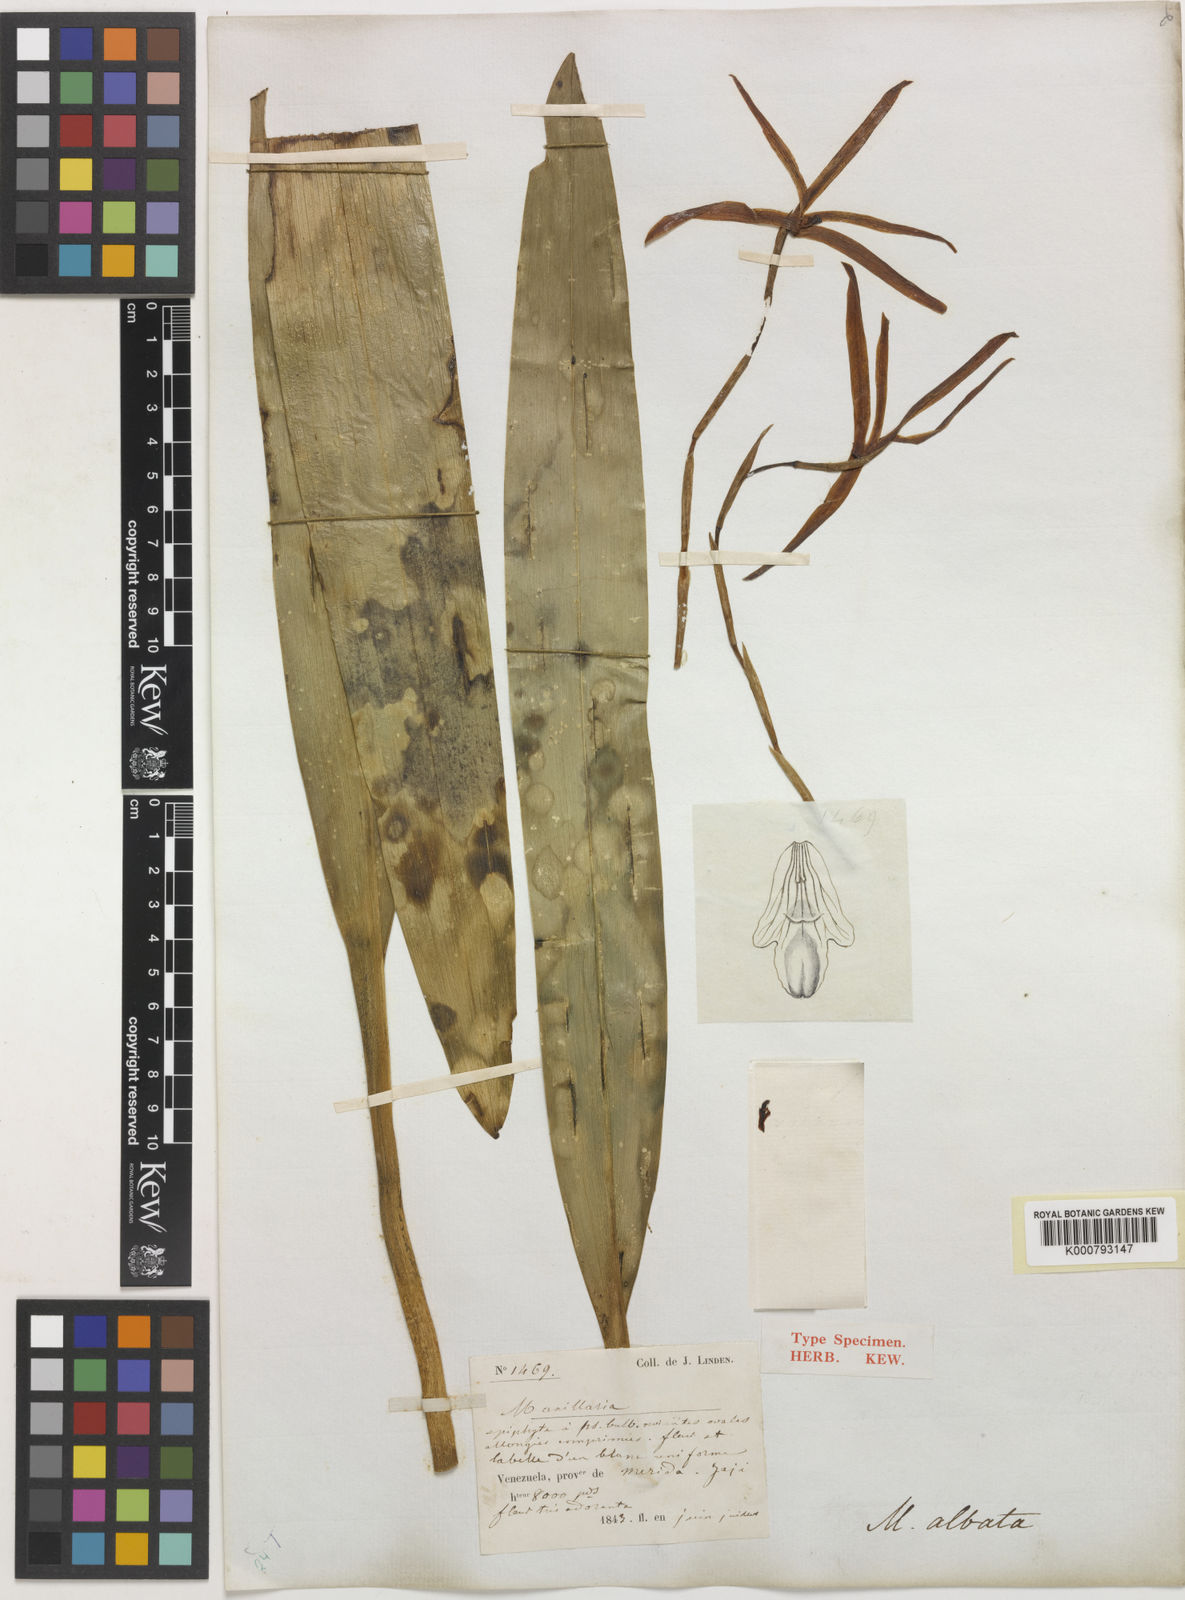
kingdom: Plantae
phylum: Tracheophyta
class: Liliopsida
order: Asparagales
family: Orchidaceae
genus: Maxillaria
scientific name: Maxillaria albata
